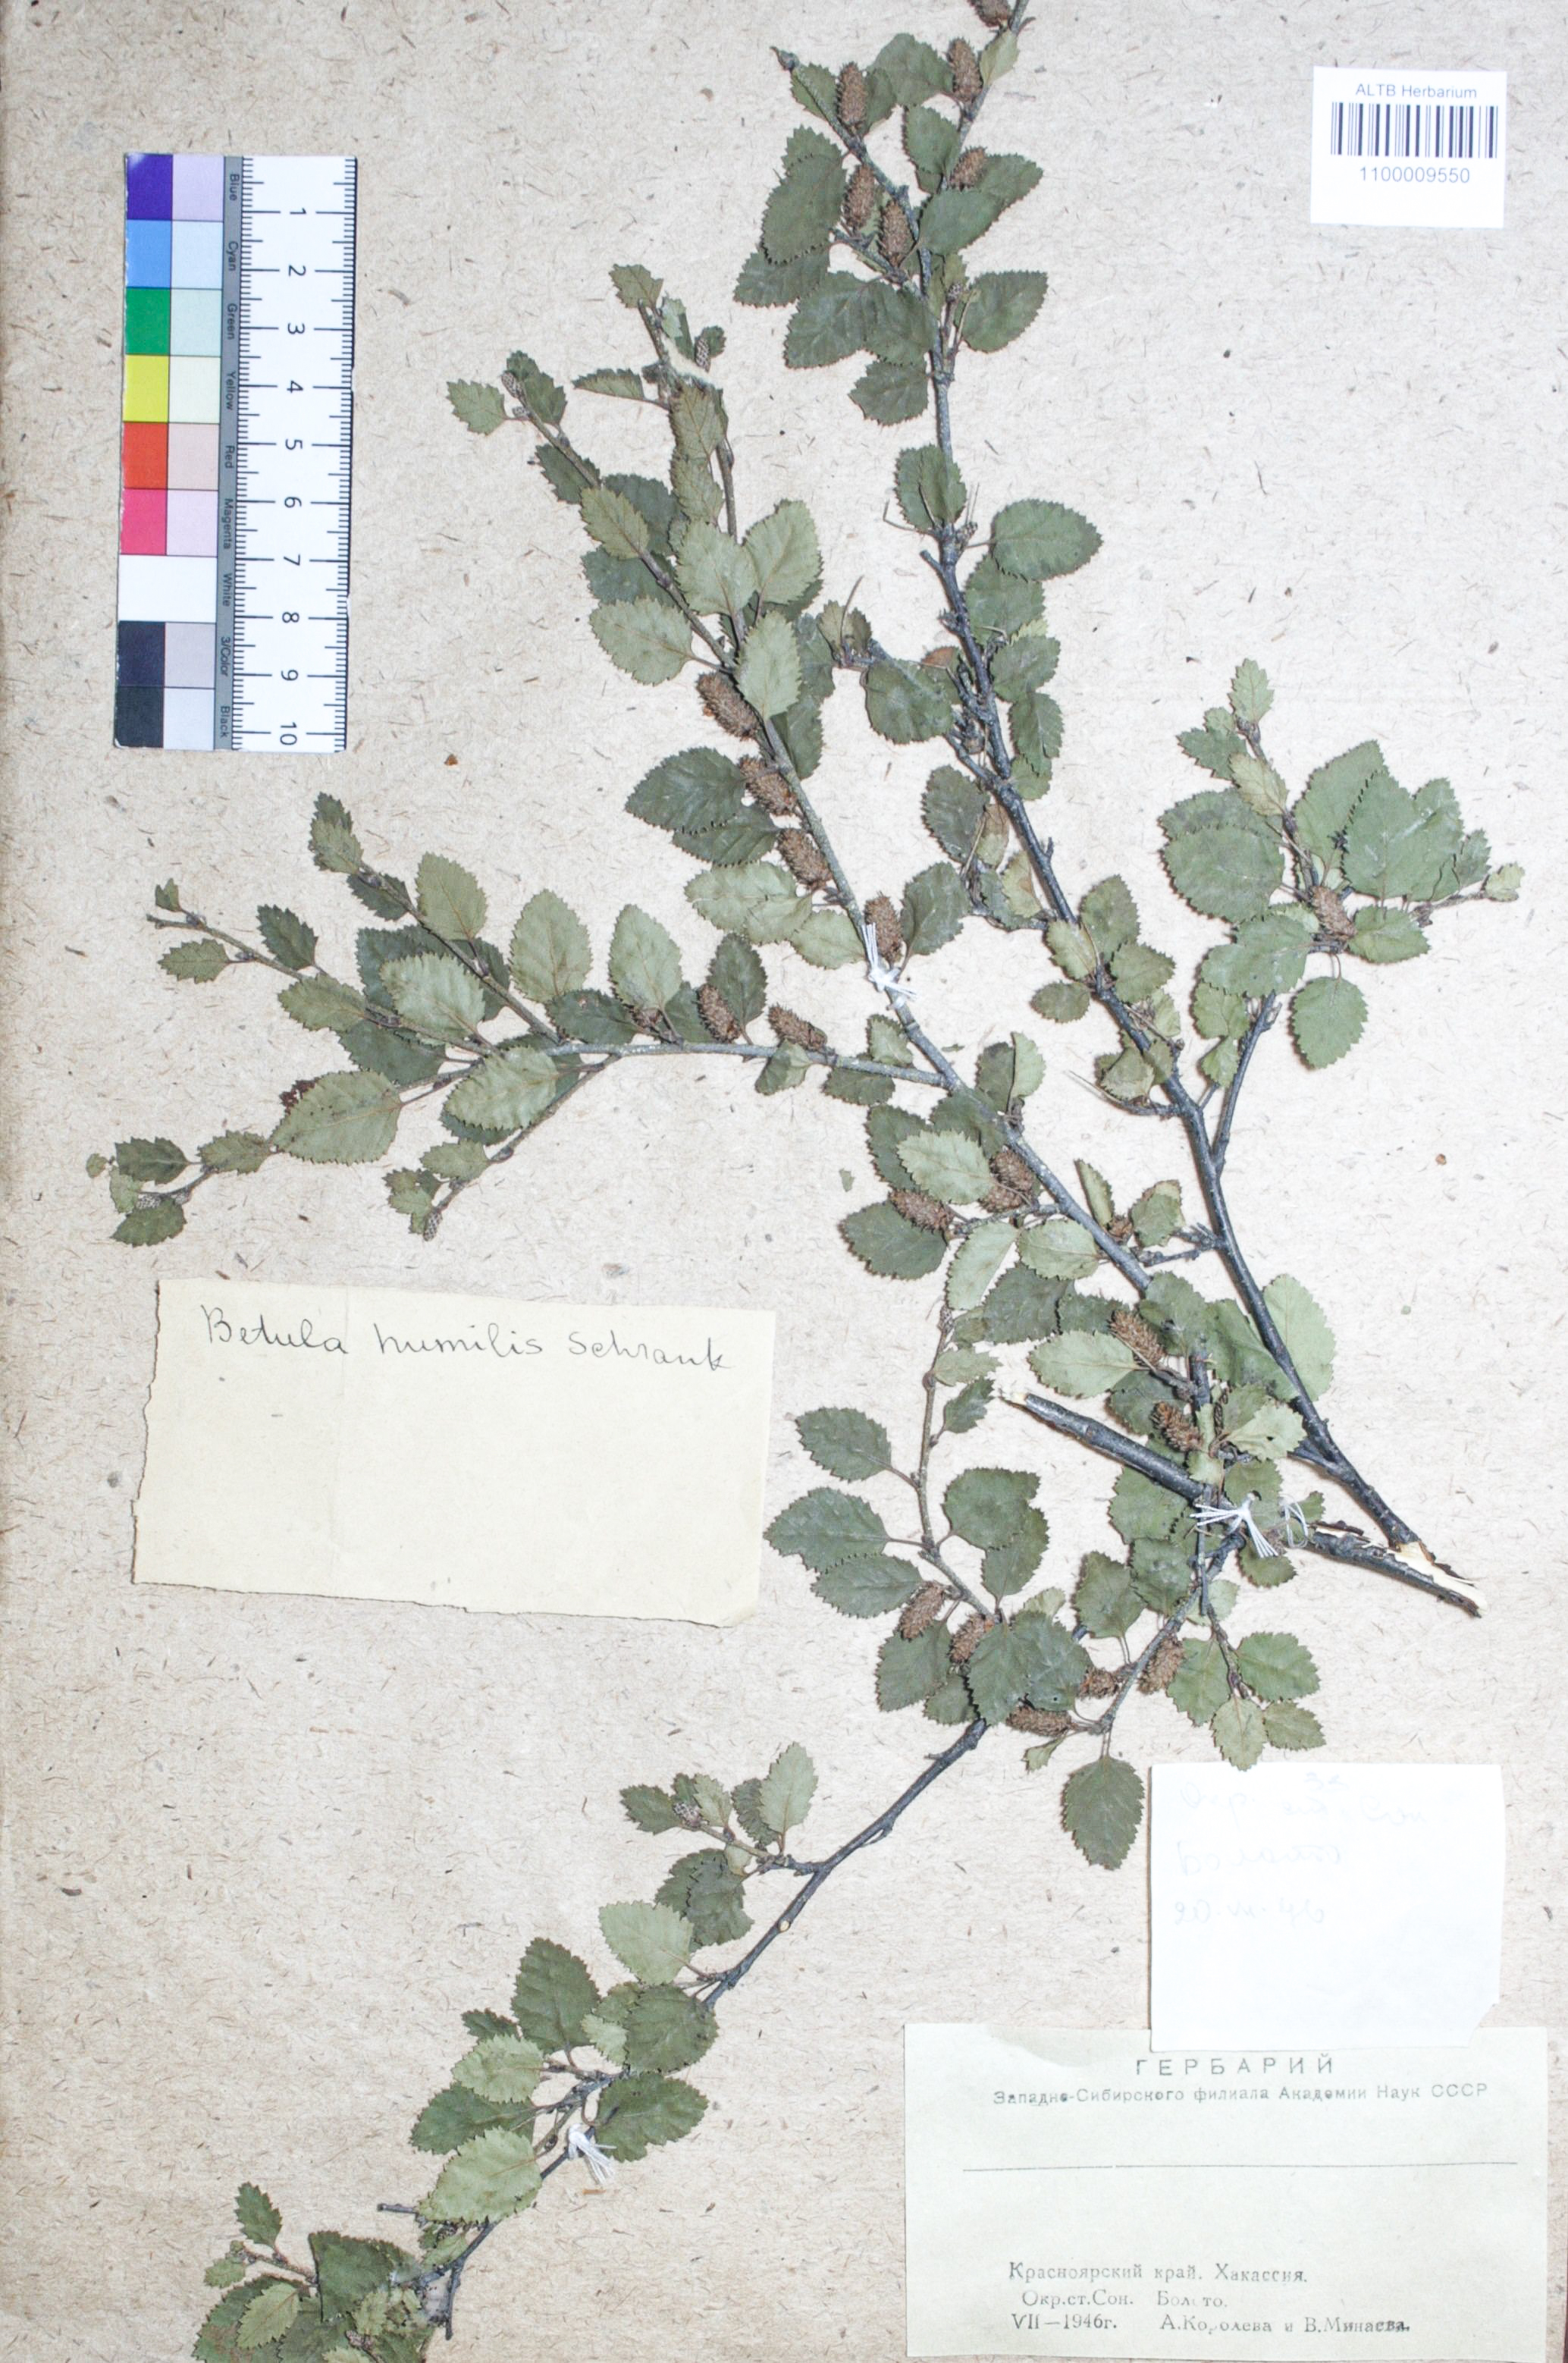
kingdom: Plantae
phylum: Tracheophyta
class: Magnoliopsida
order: Fagales
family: Betulaceae
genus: Betula
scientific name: Betula humilis
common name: Shrubby birch
